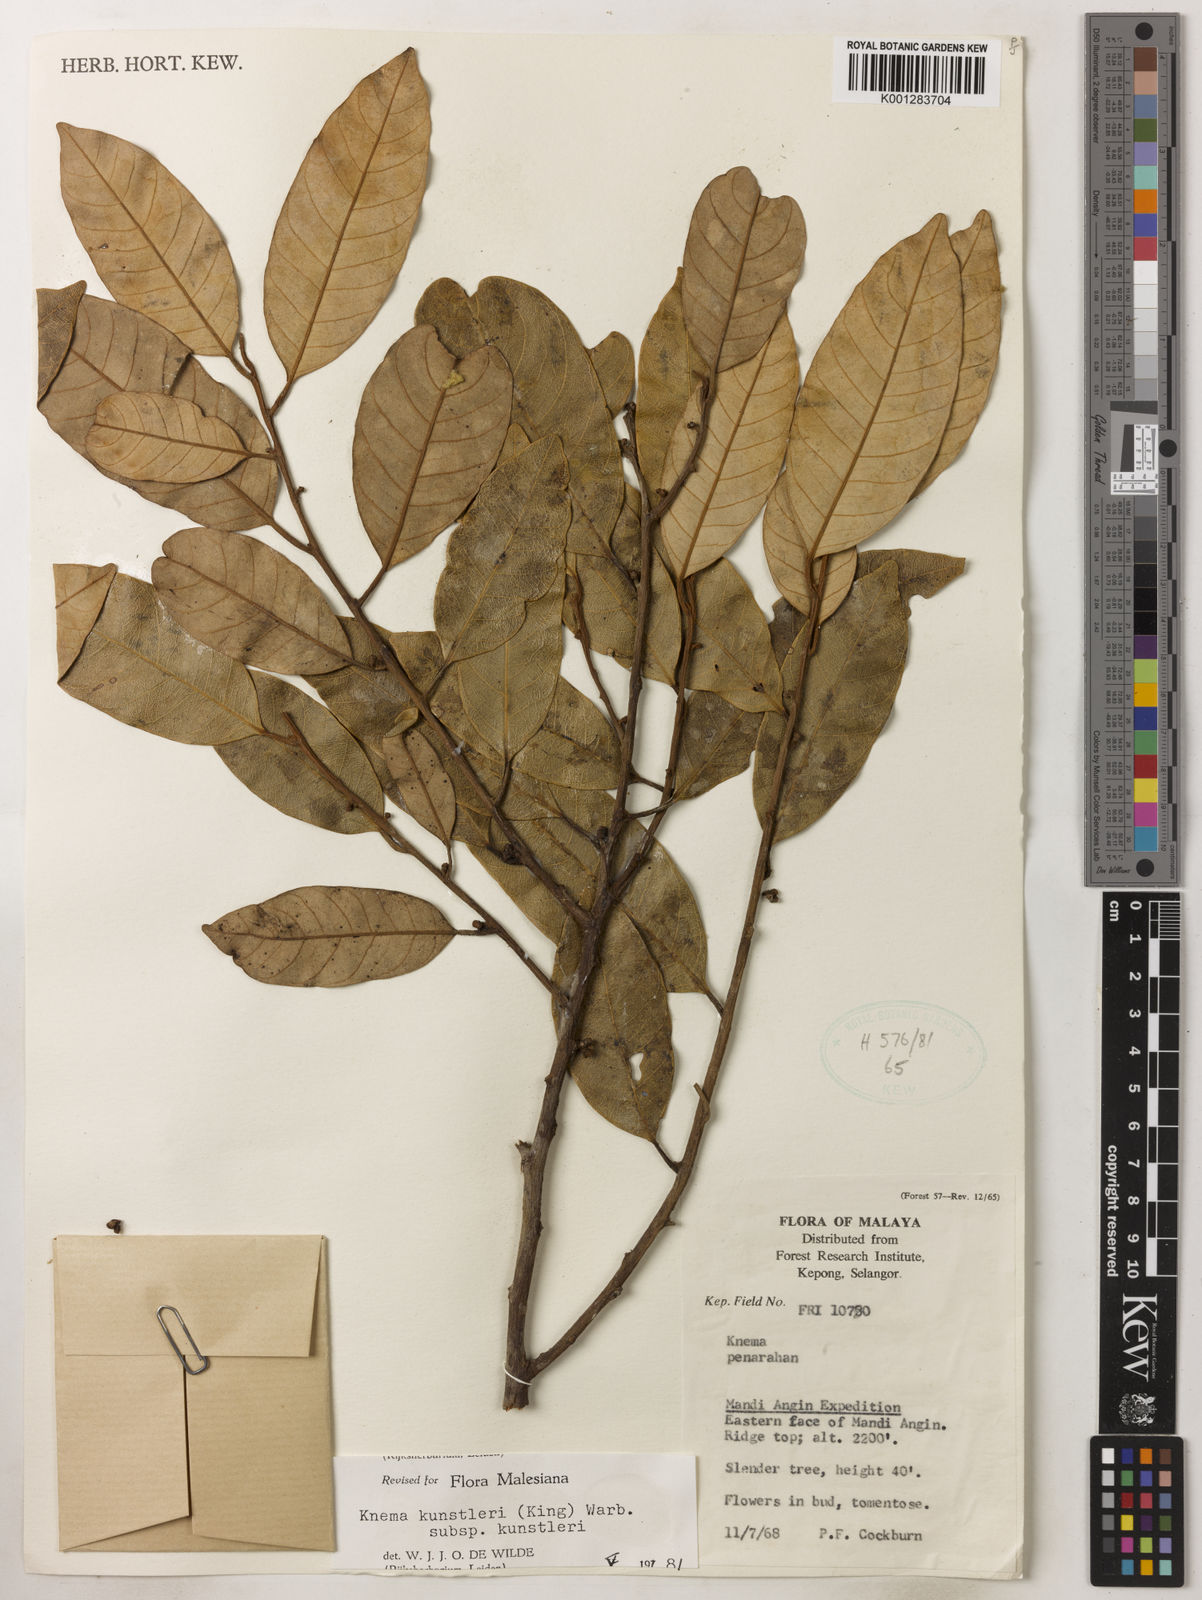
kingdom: Plantae
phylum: Tracheophyta
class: Magnoliopsida
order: Magnoliales
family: Myristicaceae
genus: Knema
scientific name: Knema kunstleri
